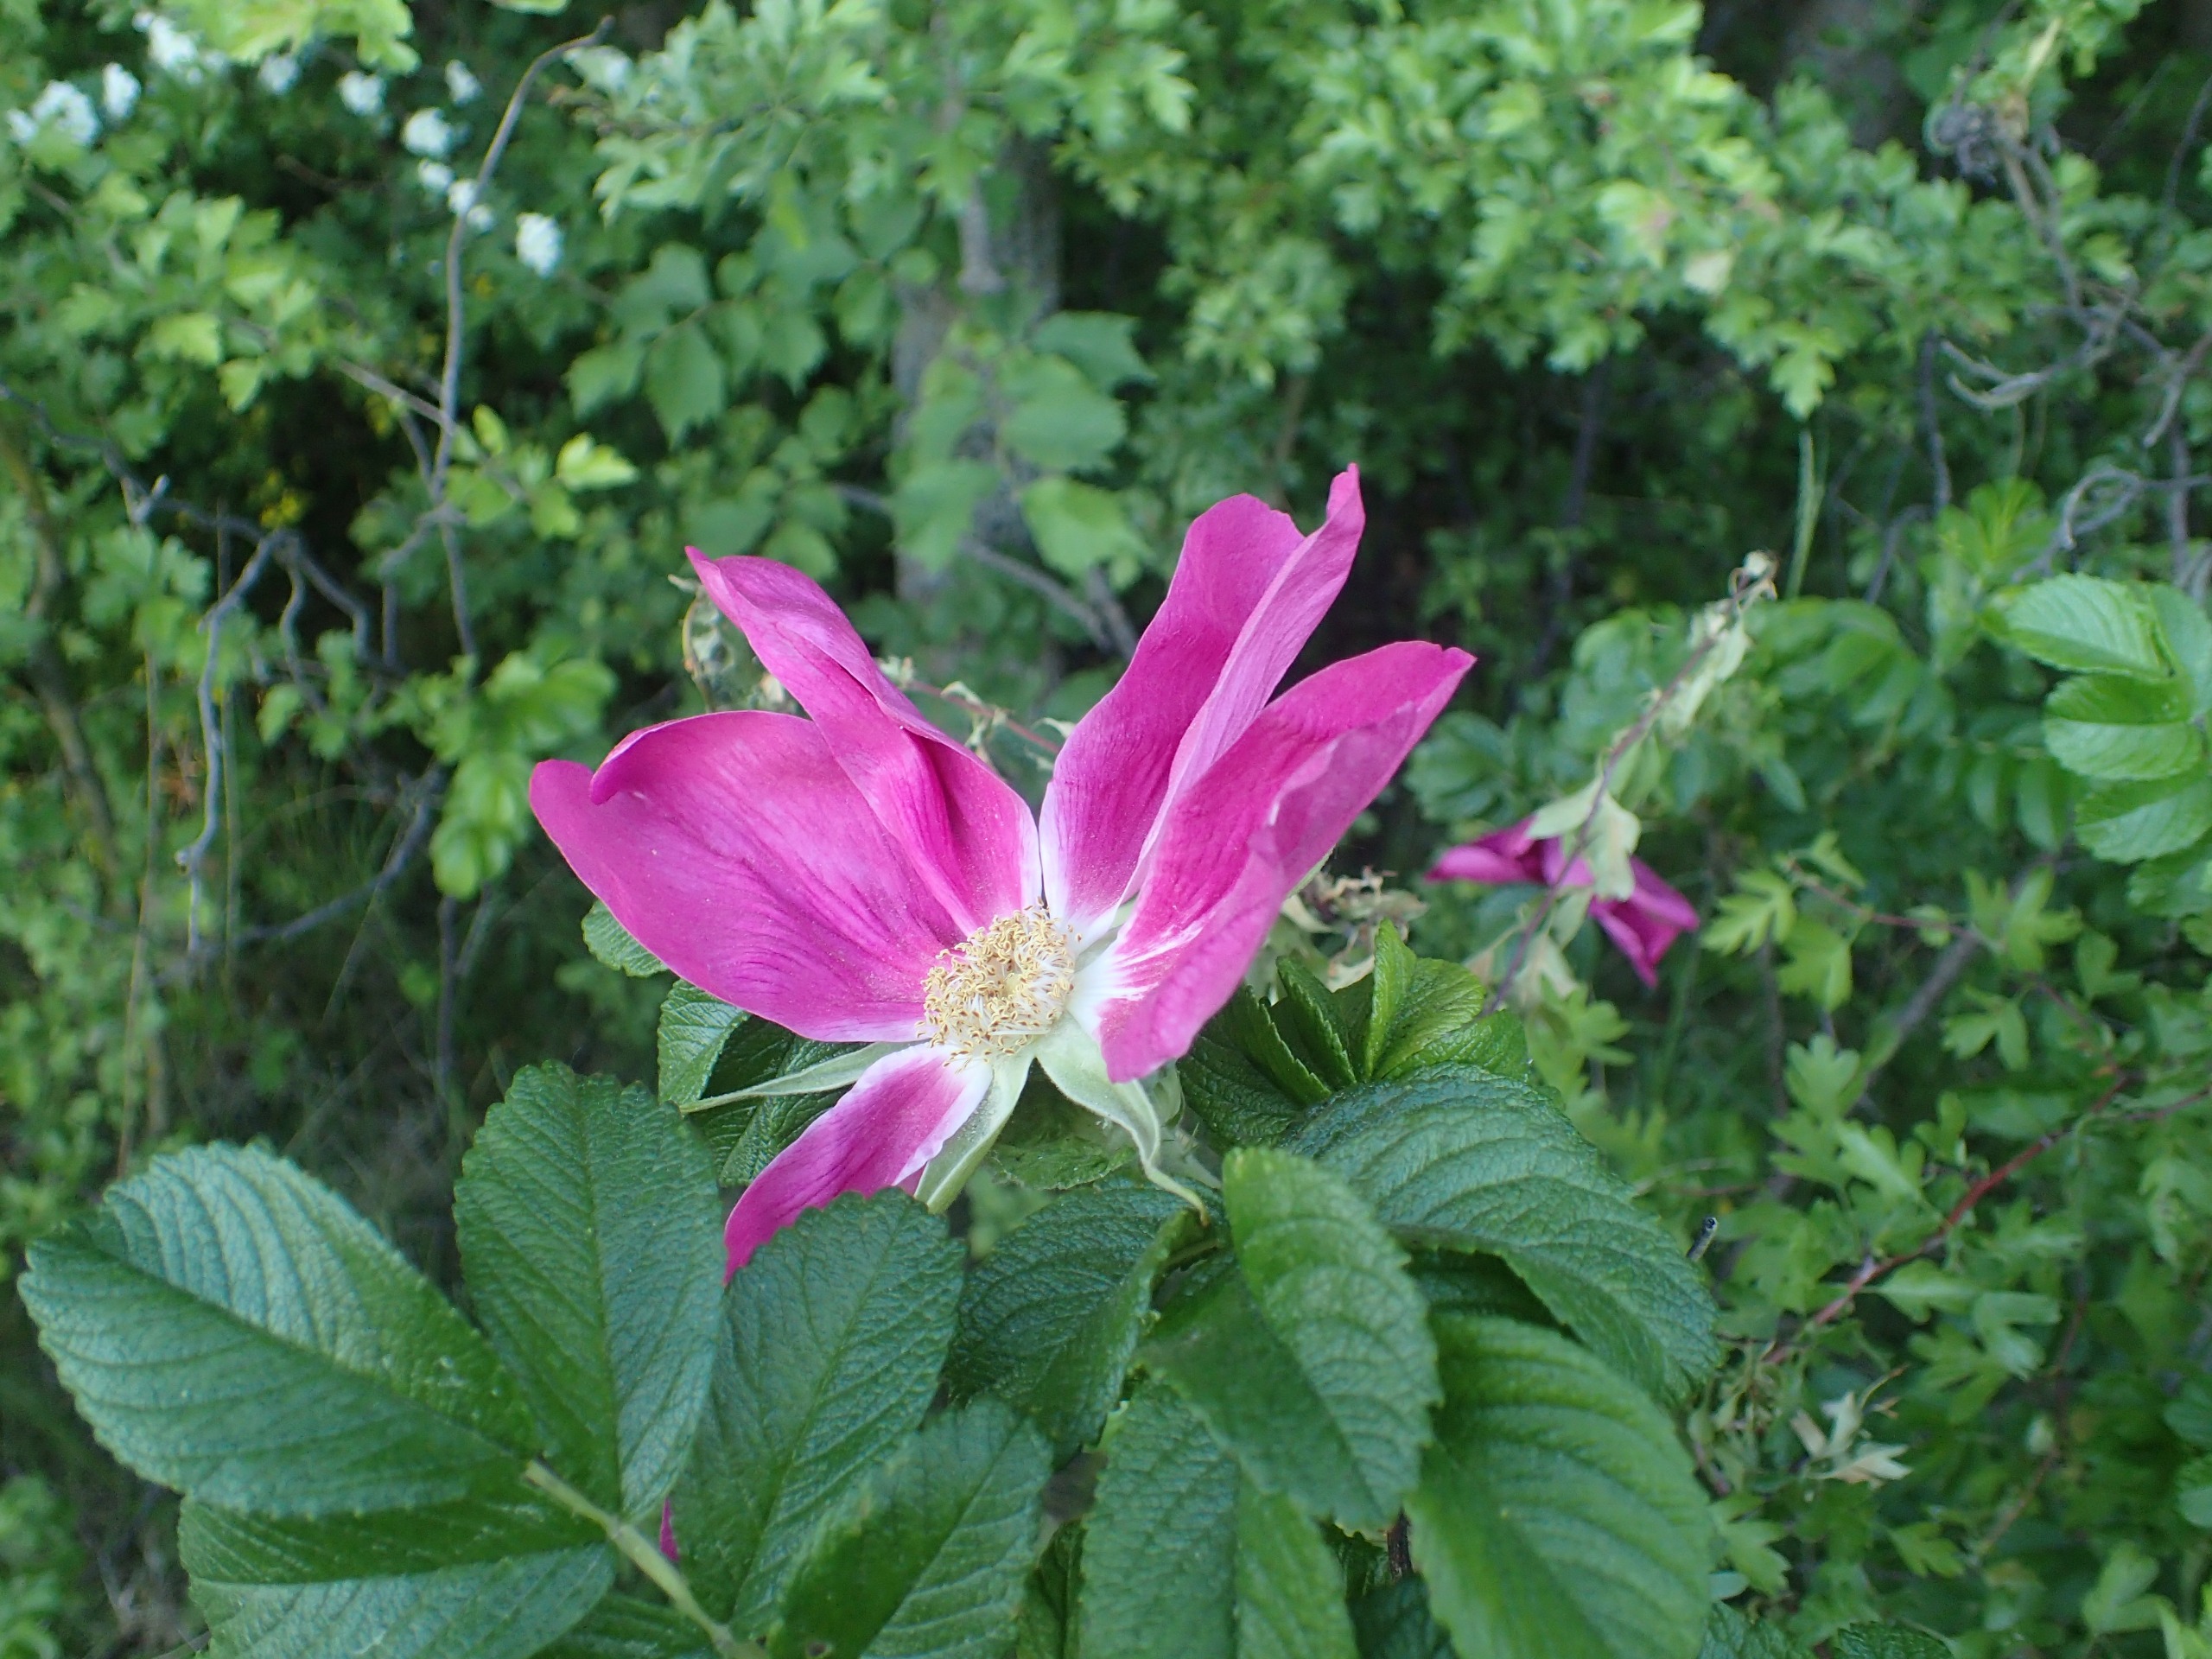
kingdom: Plantae
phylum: Tracheophyta
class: Magnoliopsida
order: Rosales
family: Rosaceae
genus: Rosa
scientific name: Rosa rugosa
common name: Rynket rose
